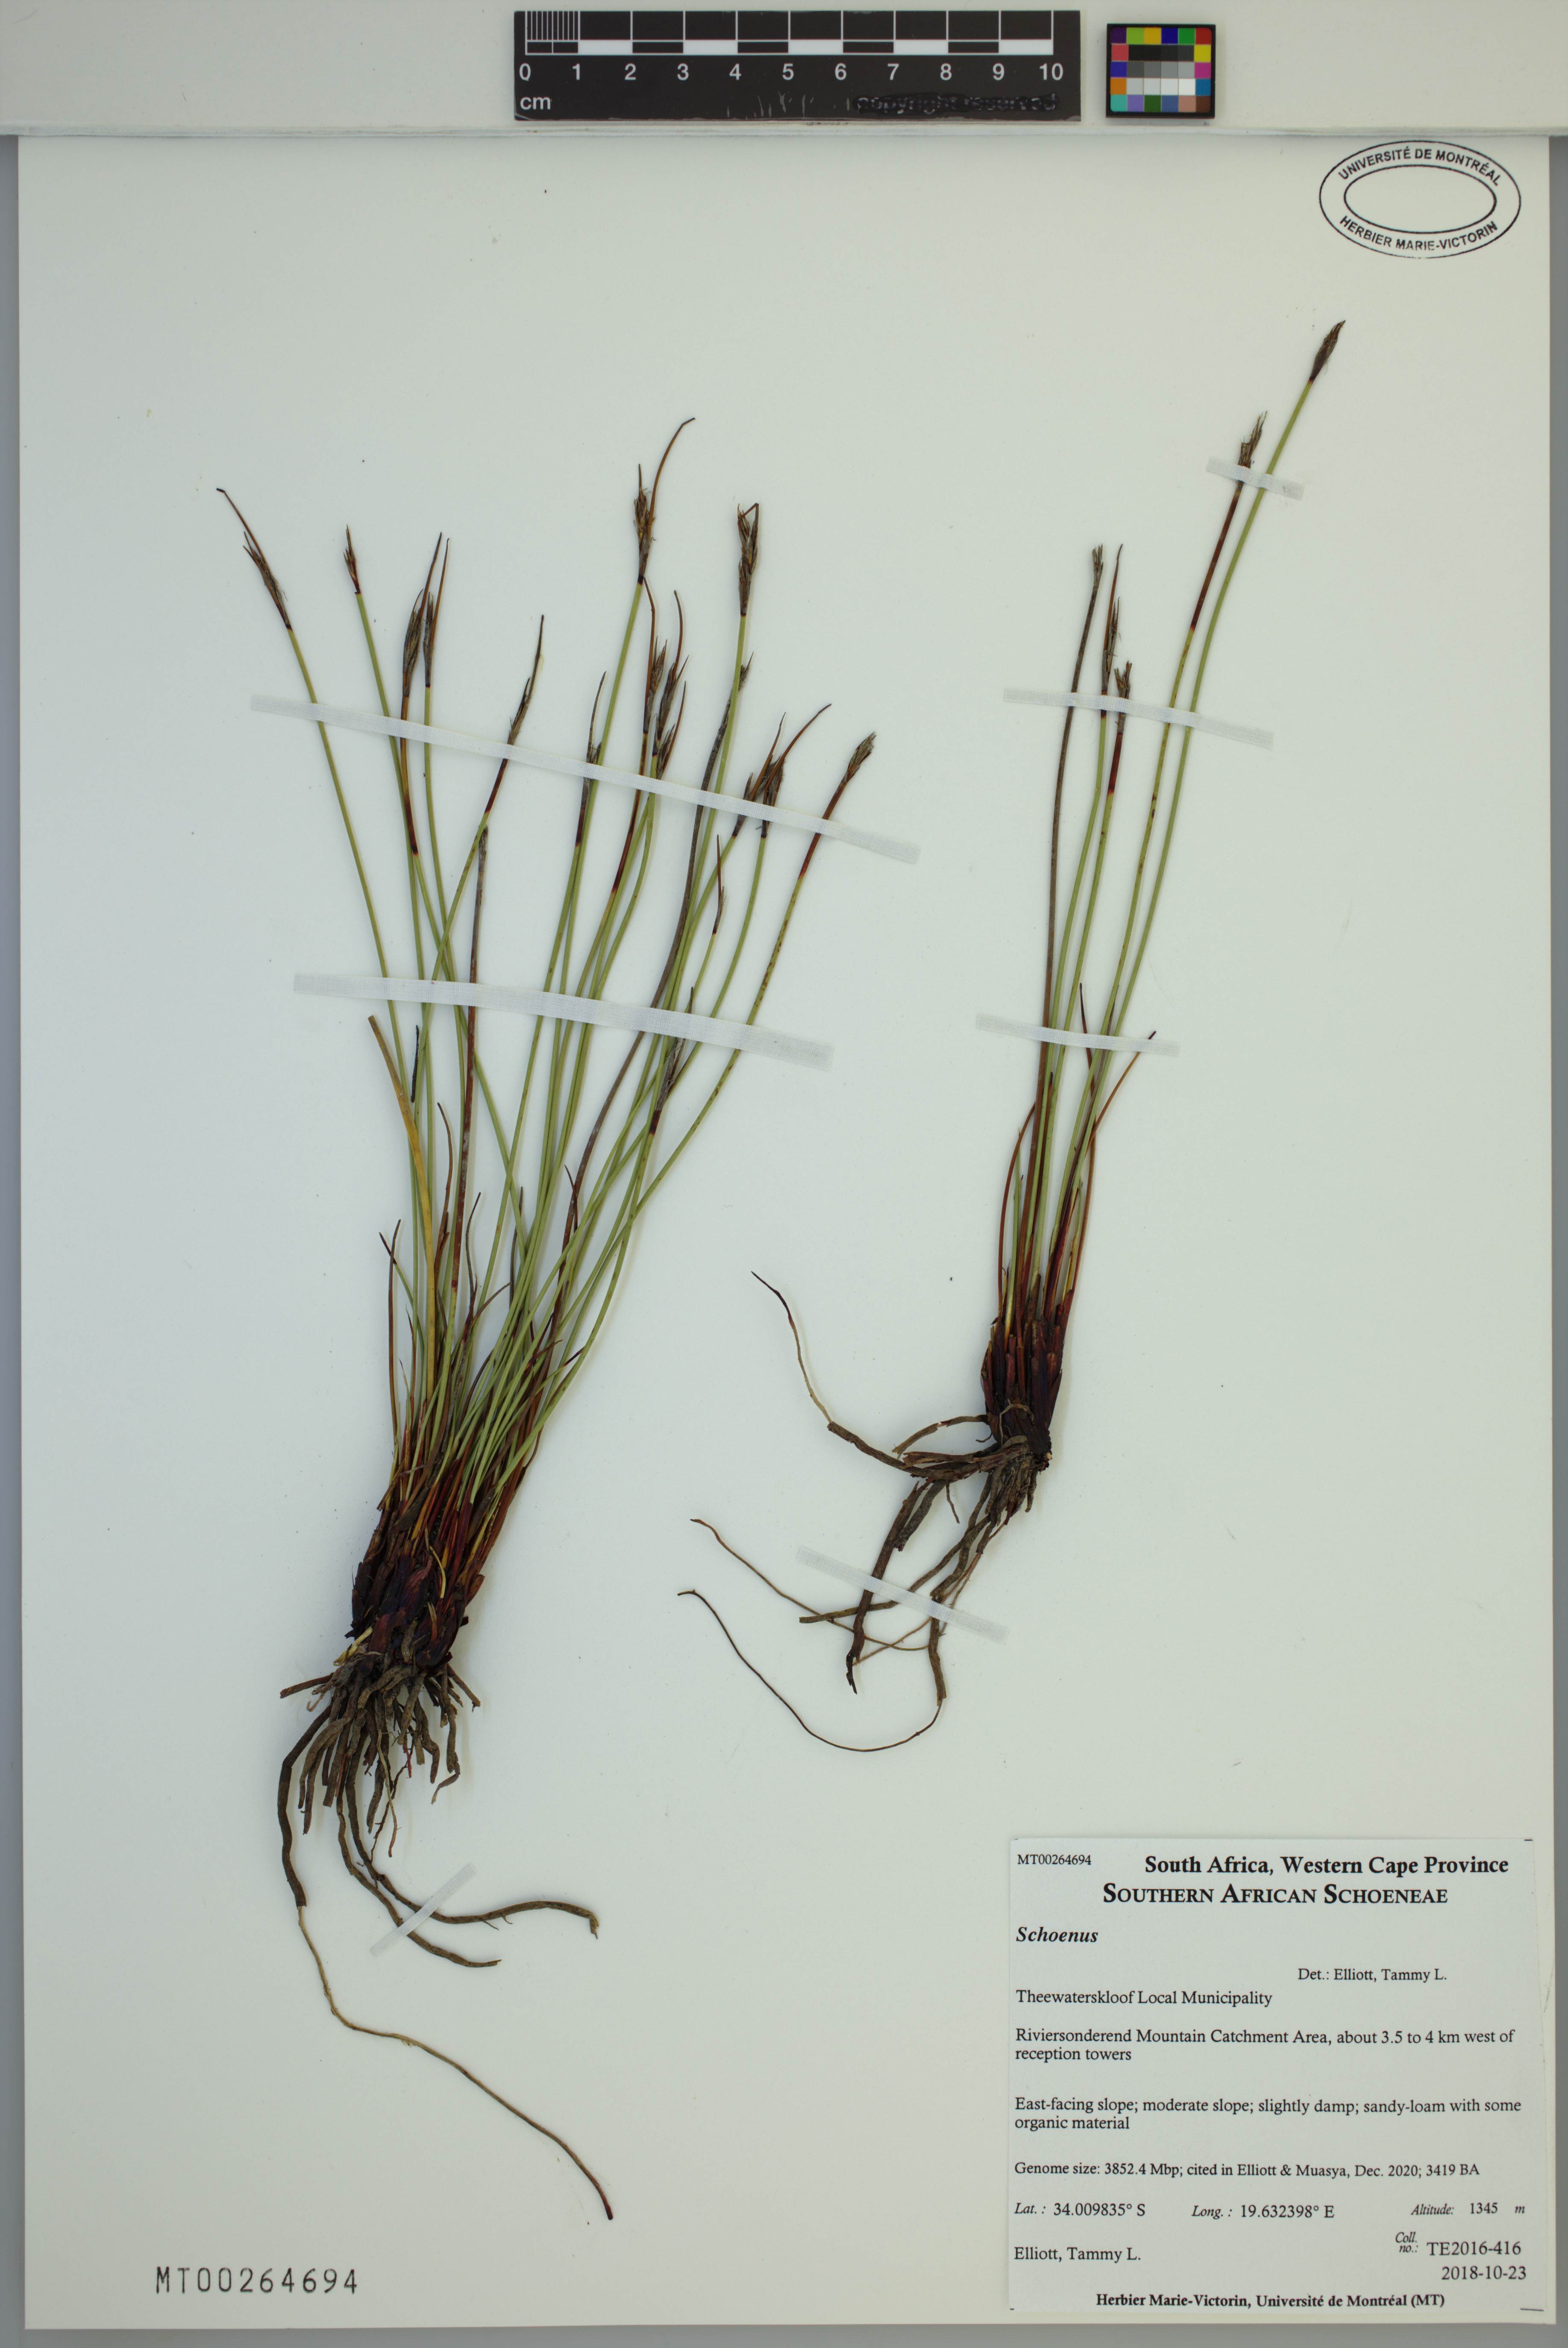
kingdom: Plantae
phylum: Tracheophyta
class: Liliopsida
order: Poales
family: Cyperaceae
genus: Schoenus
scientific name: Schoenus
